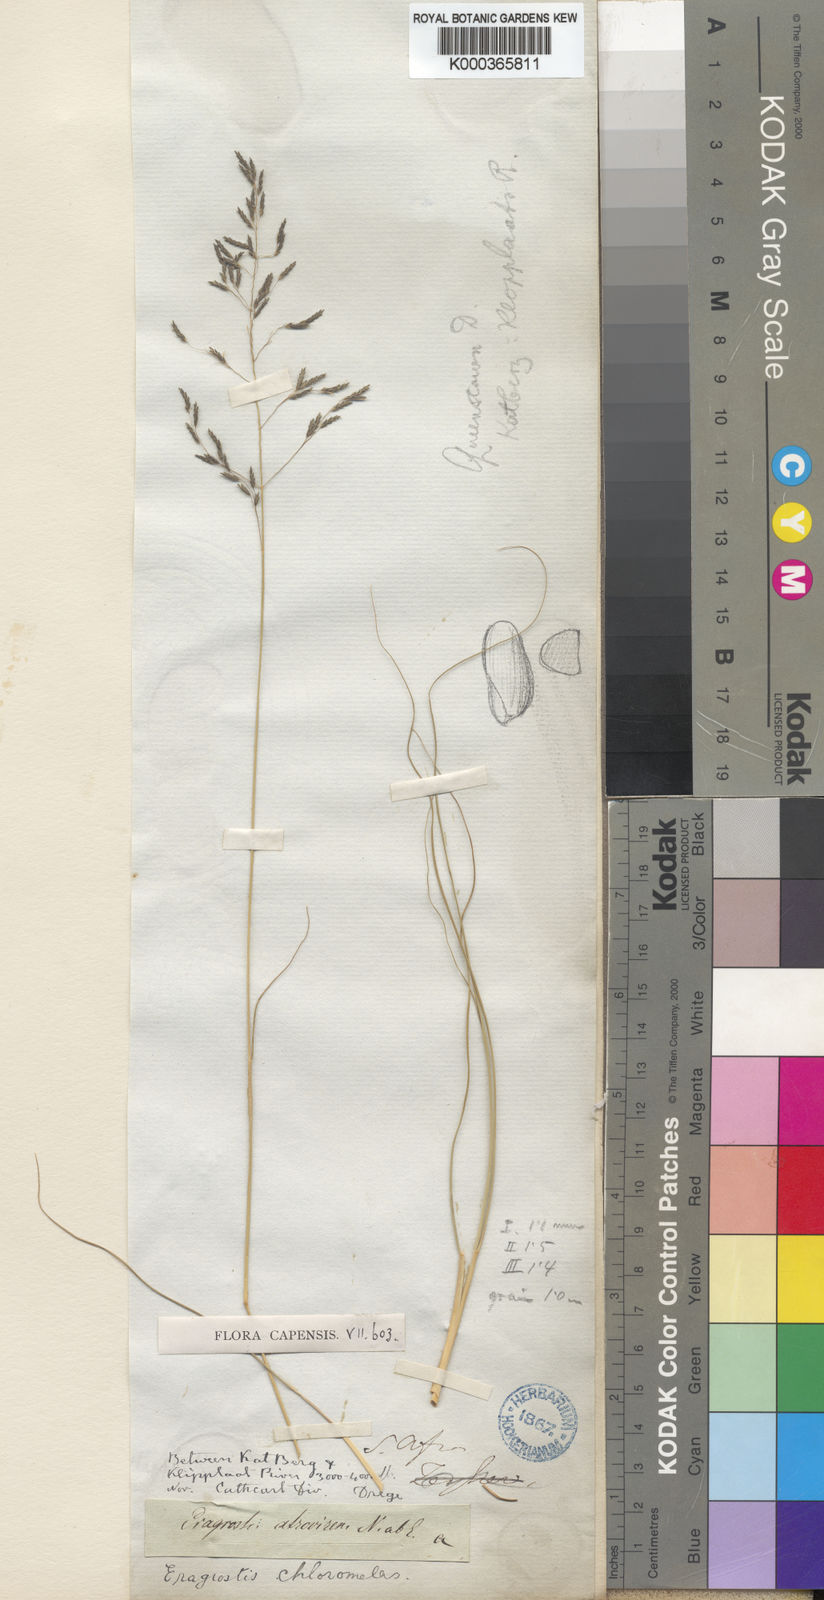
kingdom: Plantae
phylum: Tracheophyta
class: Liliopsida
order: Poales
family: Poaceae
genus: Eragrostis
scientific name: Eragrostis curvula
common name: African love-grass
